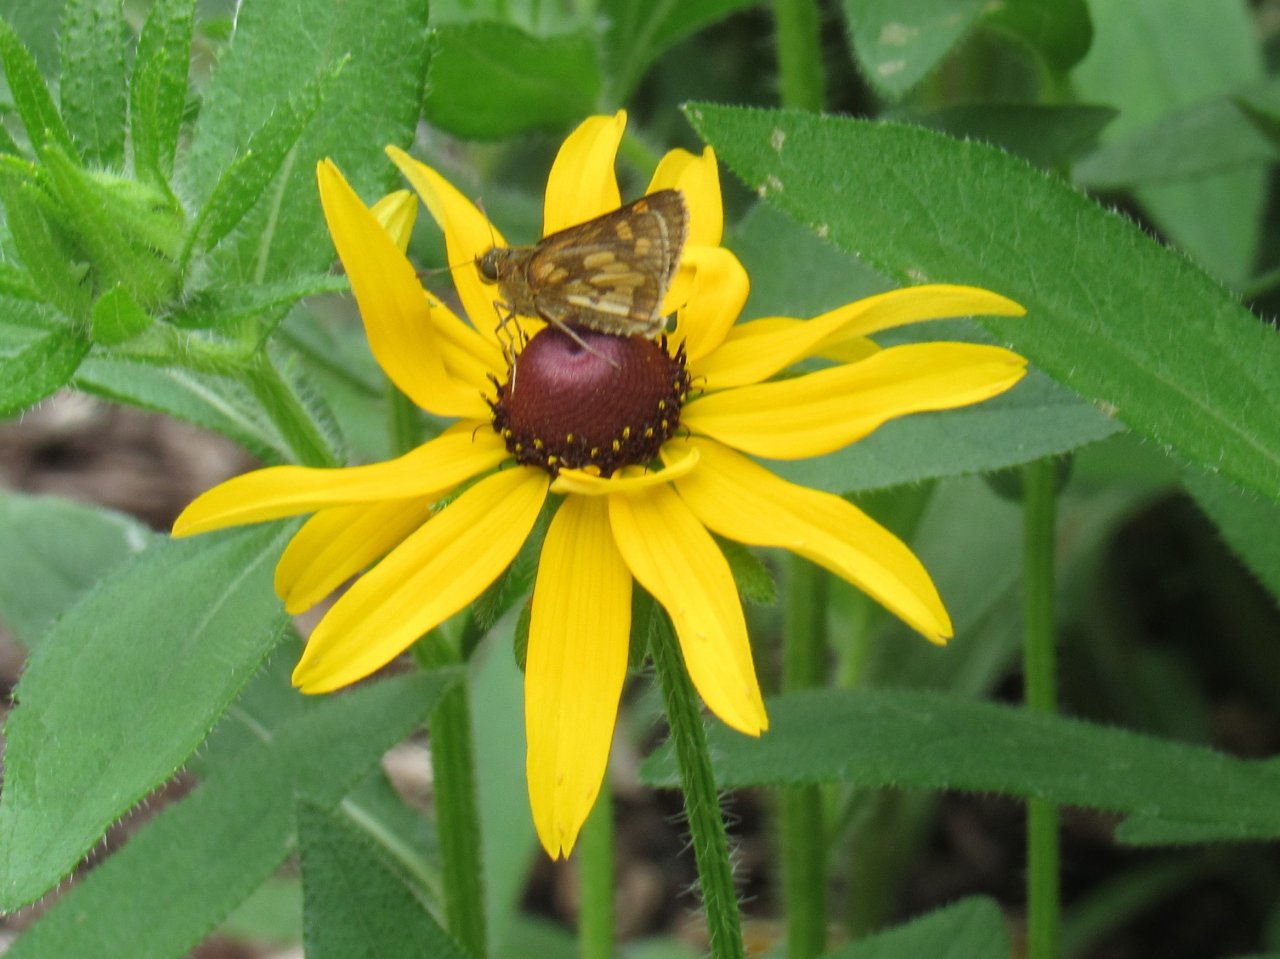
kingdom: Animalia
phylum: Arthropoda
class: Insecta
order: Lepidoptera
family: Hesperiidae
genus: Polites
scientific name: Polites coras
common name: Peck's Skipper
